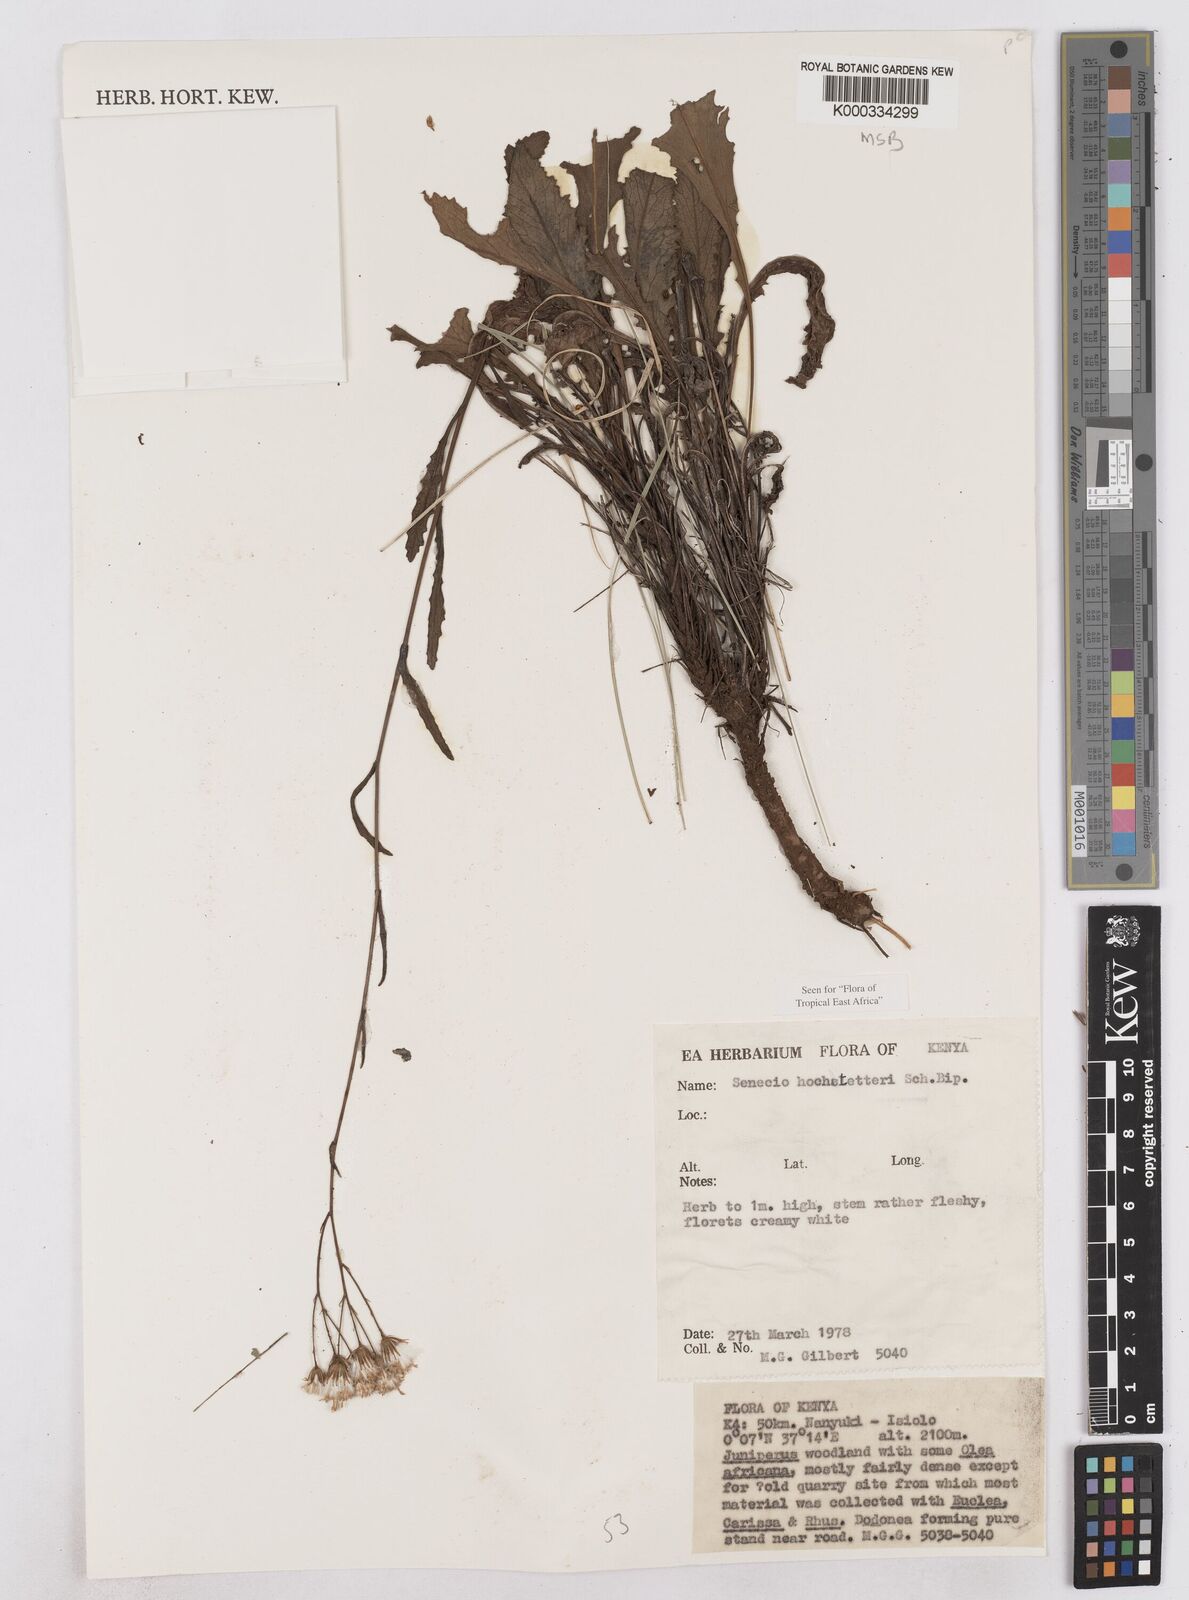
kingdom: Plantae
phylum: Tracheophyta
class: Magnoliopsida
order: Asterales
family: Asteraceae
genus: Senecio
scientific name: Senecio hochstetteri
